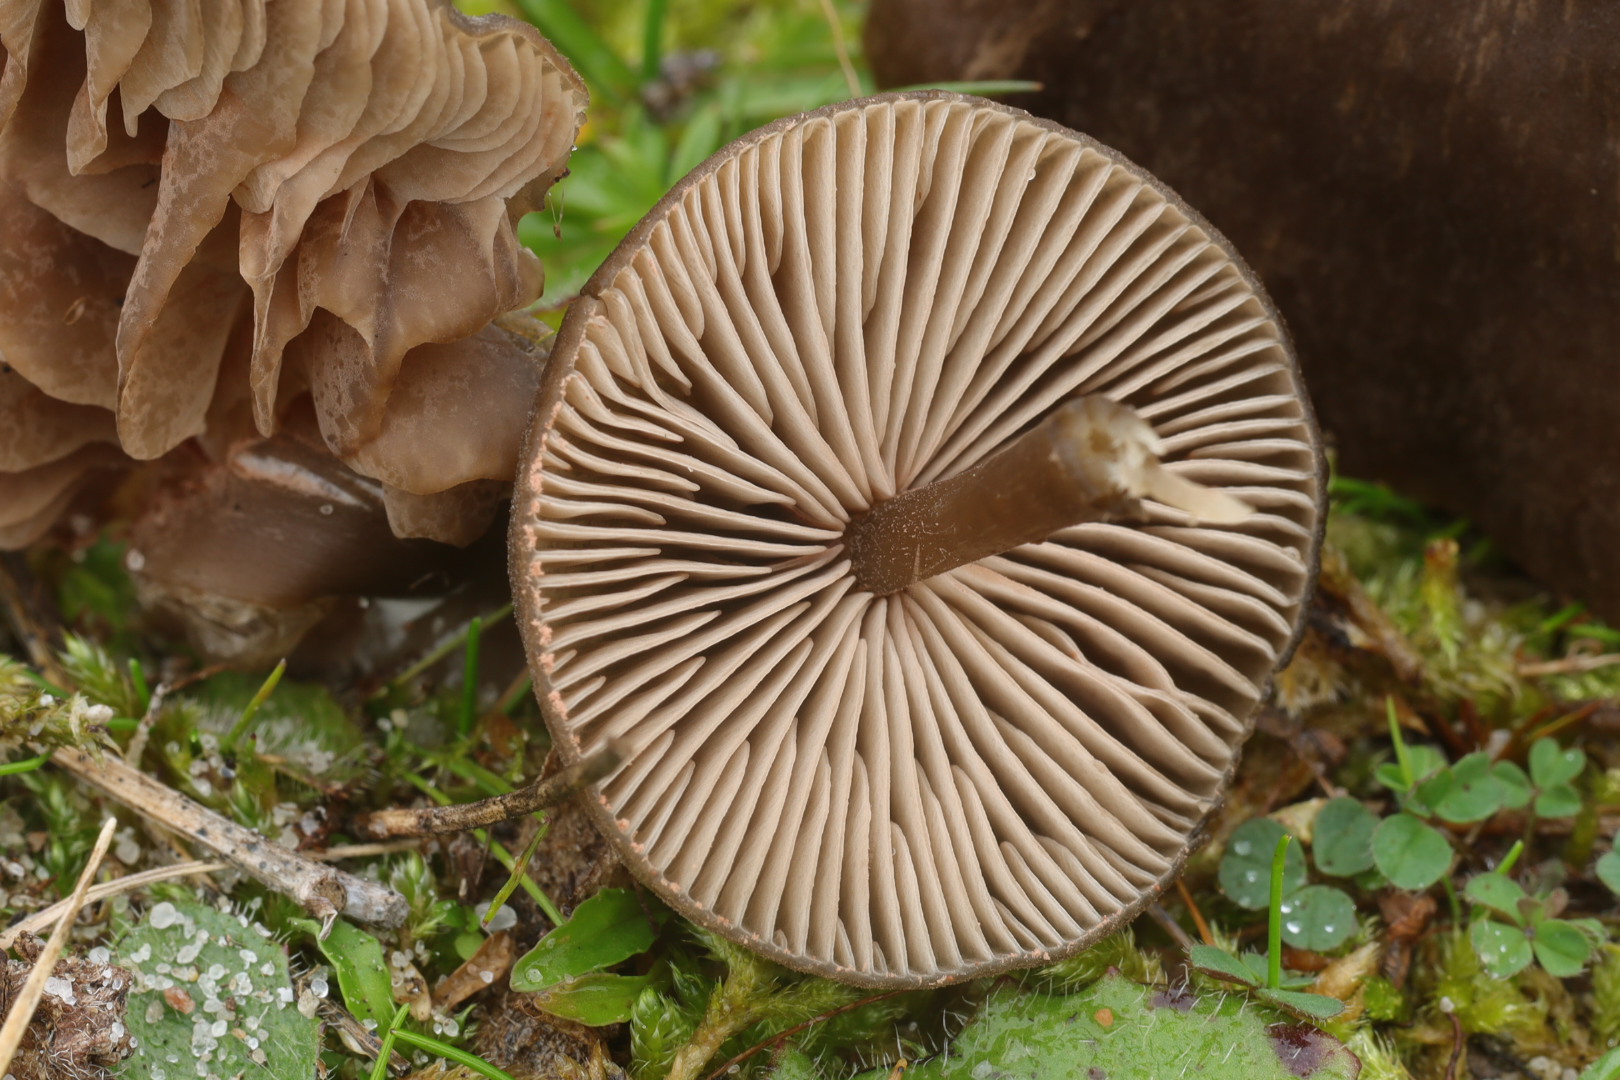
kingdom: Fungi
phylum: Basidiomycota
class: Agaricomycetes
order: Agaricales
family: Entolomataceae
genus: Entoloma
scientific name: Entoloma sericeum
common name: silkeglinsende rødblad
